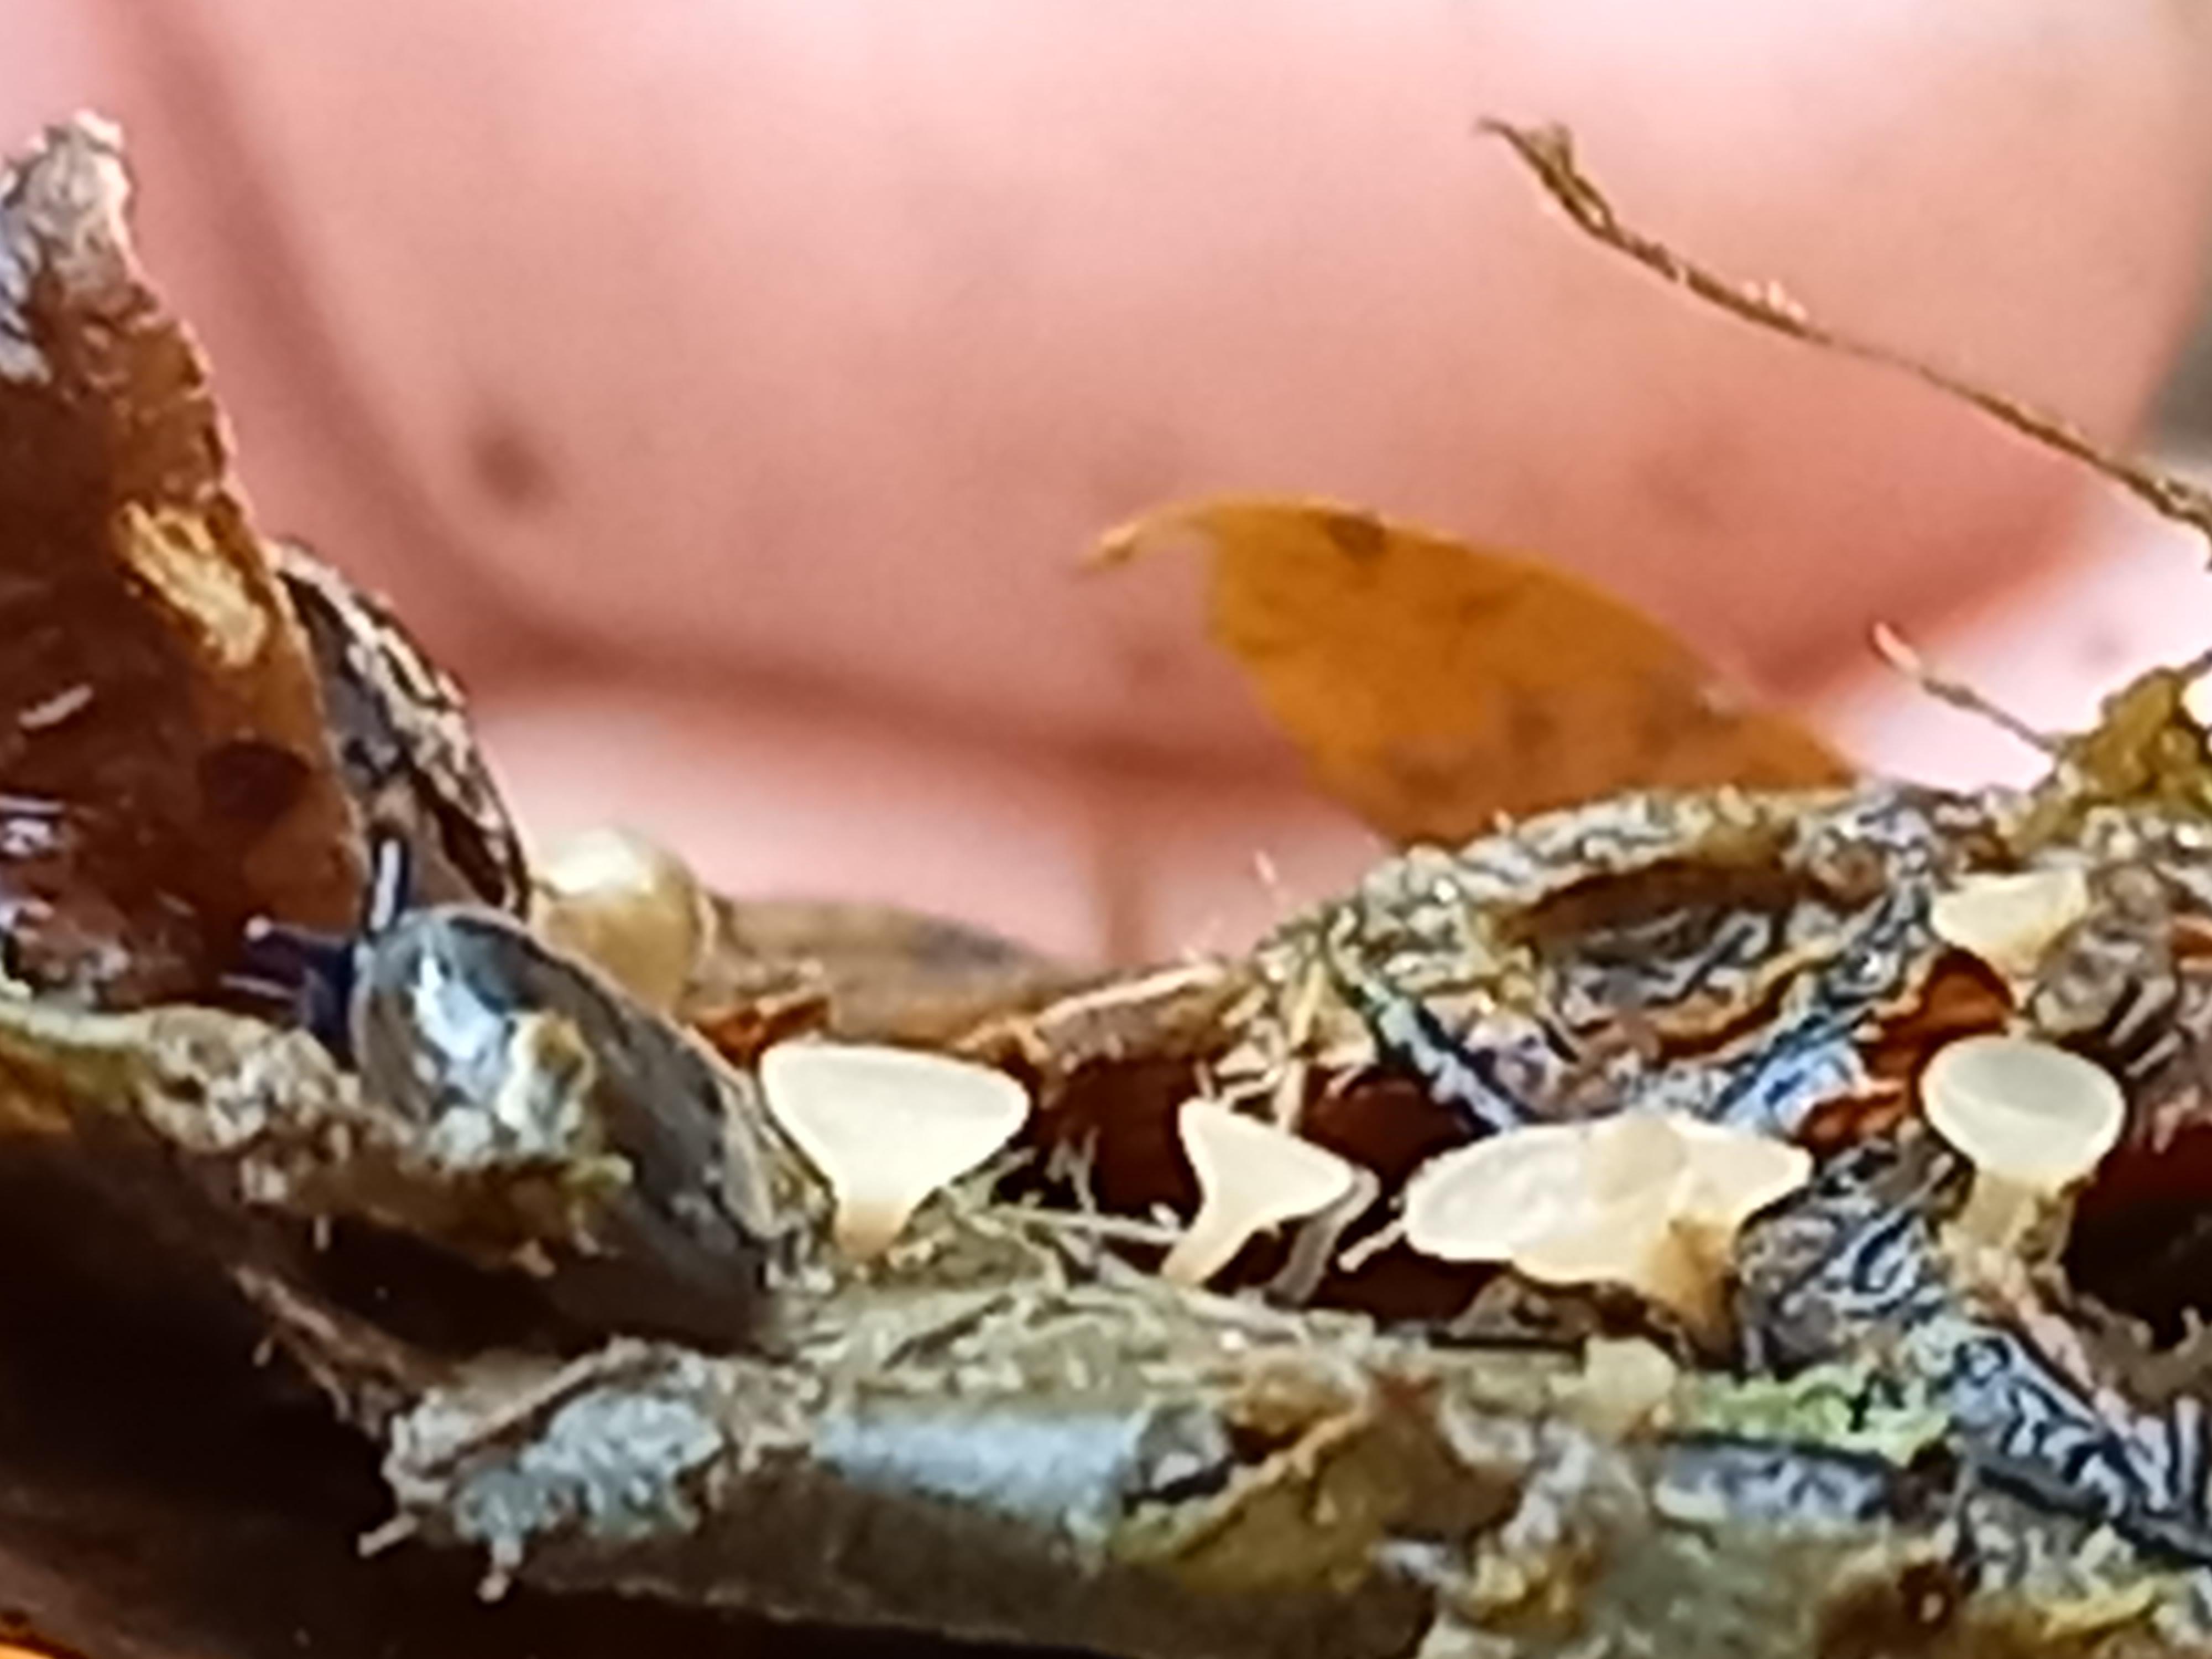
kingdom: Fungi
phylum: Ascomycota
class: Leotiomycetes
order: Helotiales
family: Rutstroemiaceae
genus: Rutstroemia
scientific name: Rutstroemia conformata
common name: elleblads-brunskive
